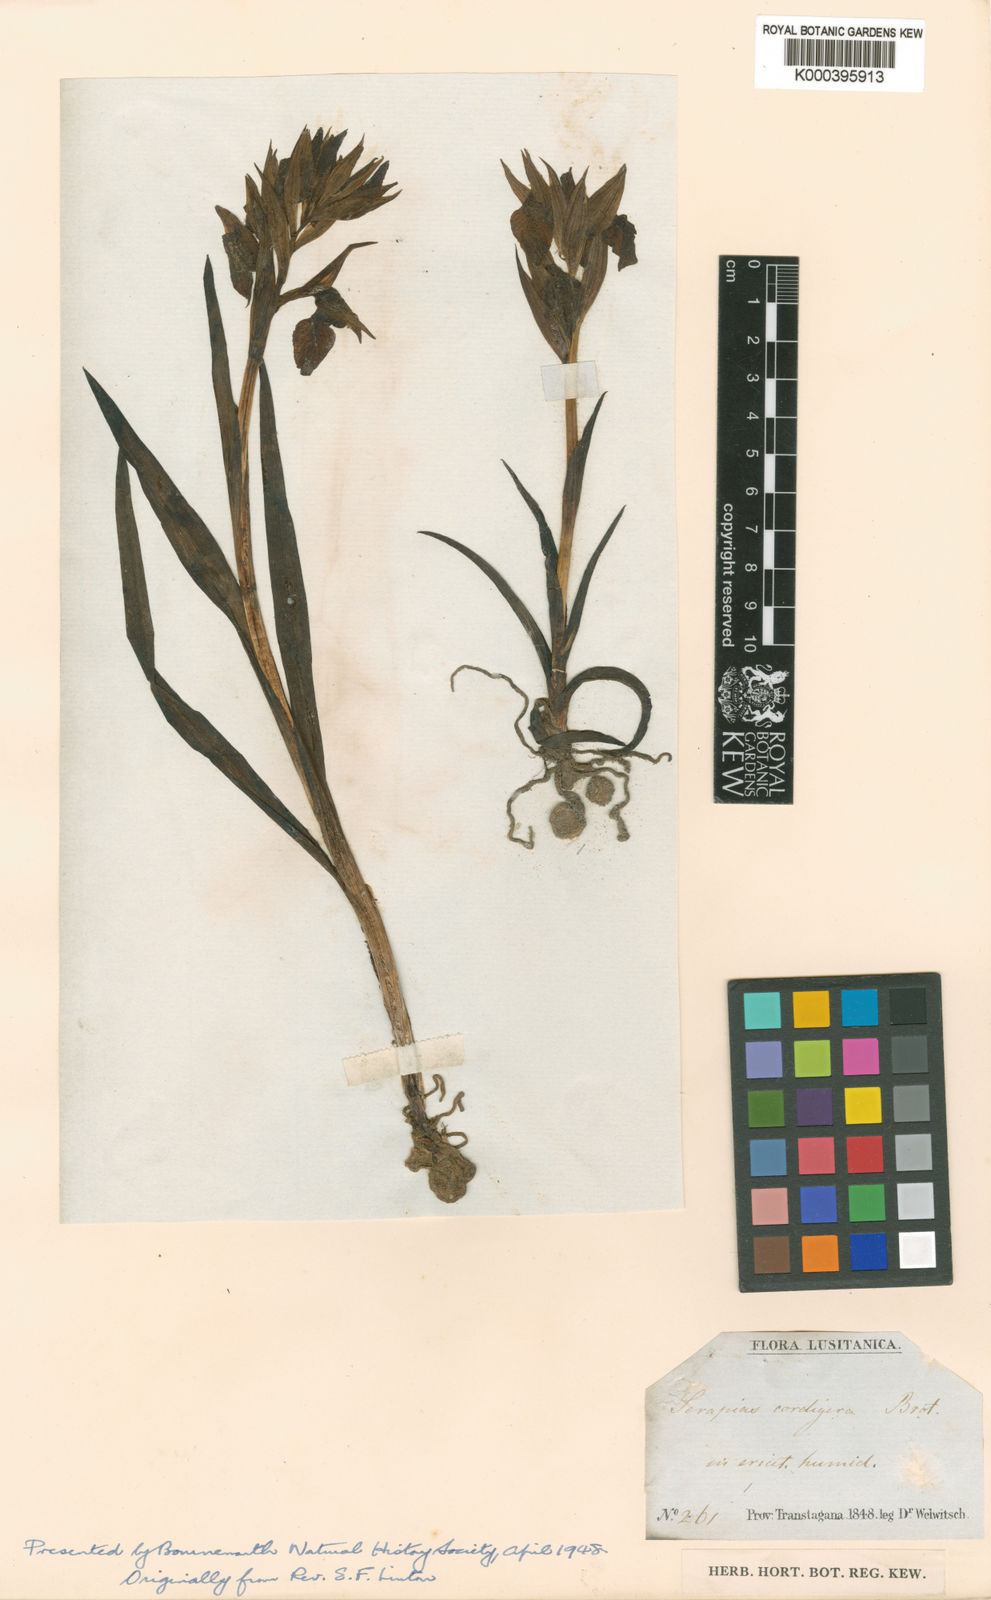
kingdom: Plantae
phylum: Tracheophyta
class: Liliopsida
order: Asparagales
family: Orchidaceae
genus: Serapias
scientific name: Serapias neglecta
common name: Neglected serapias
